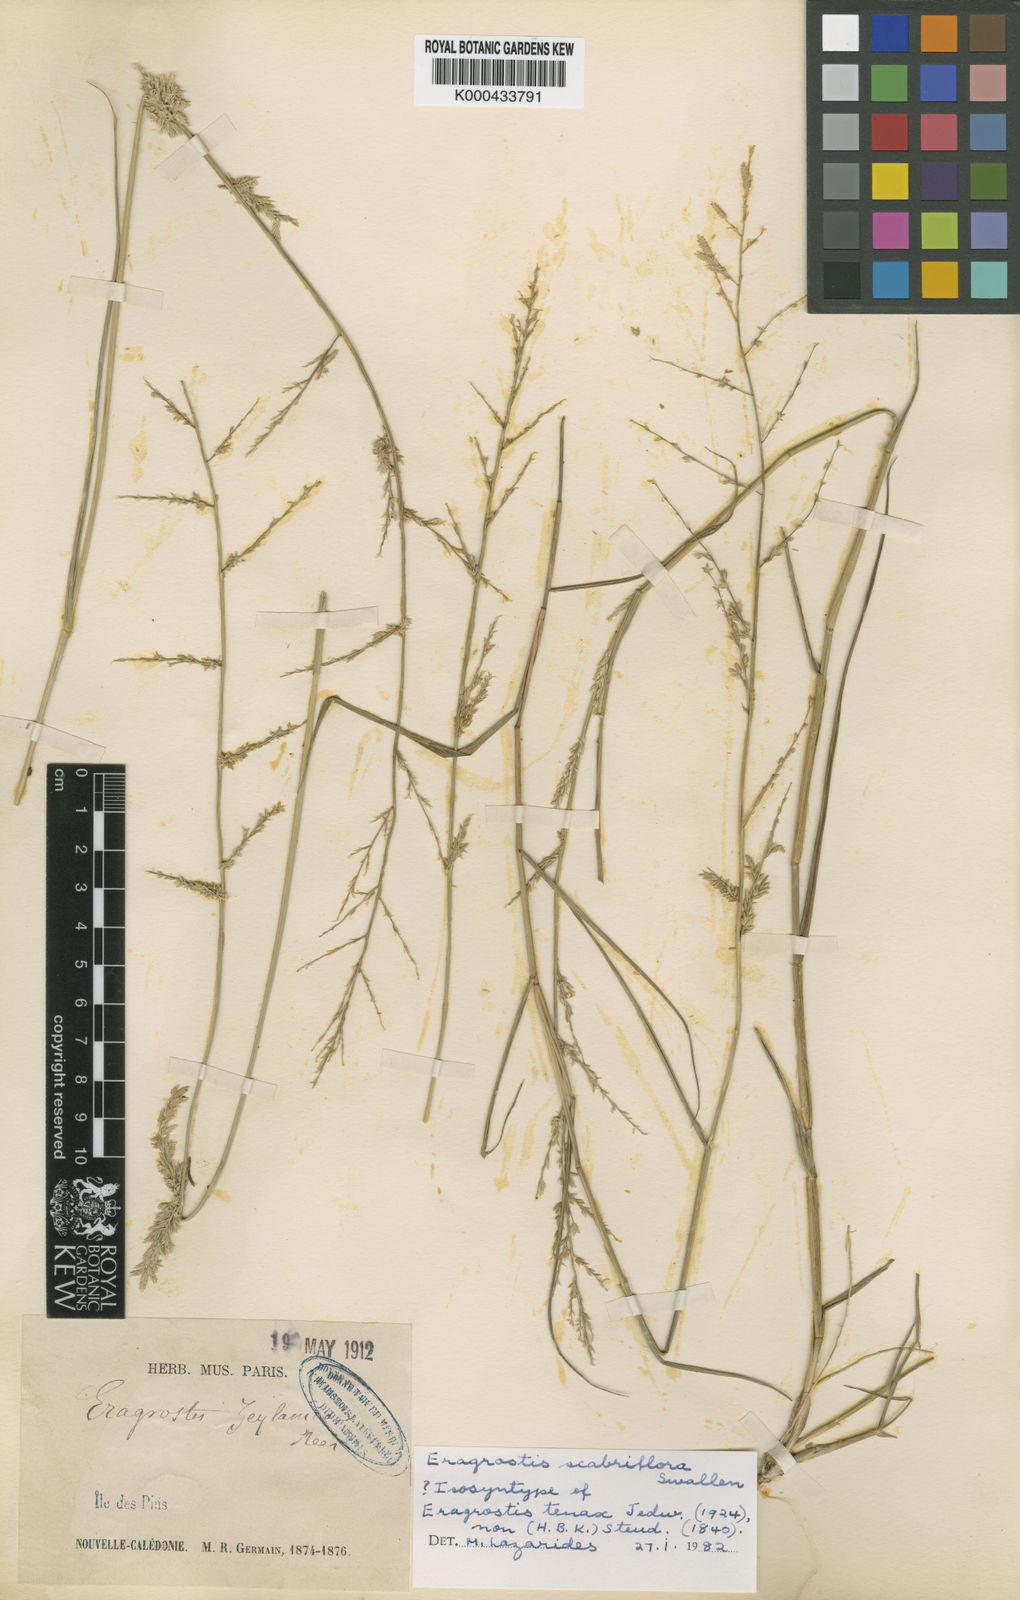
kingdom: Plantae
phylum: Tracheophyta
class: Liliopsida
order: Poales
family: Poaceae
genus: Eragrostis
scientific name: Eragrostis scabriflora
